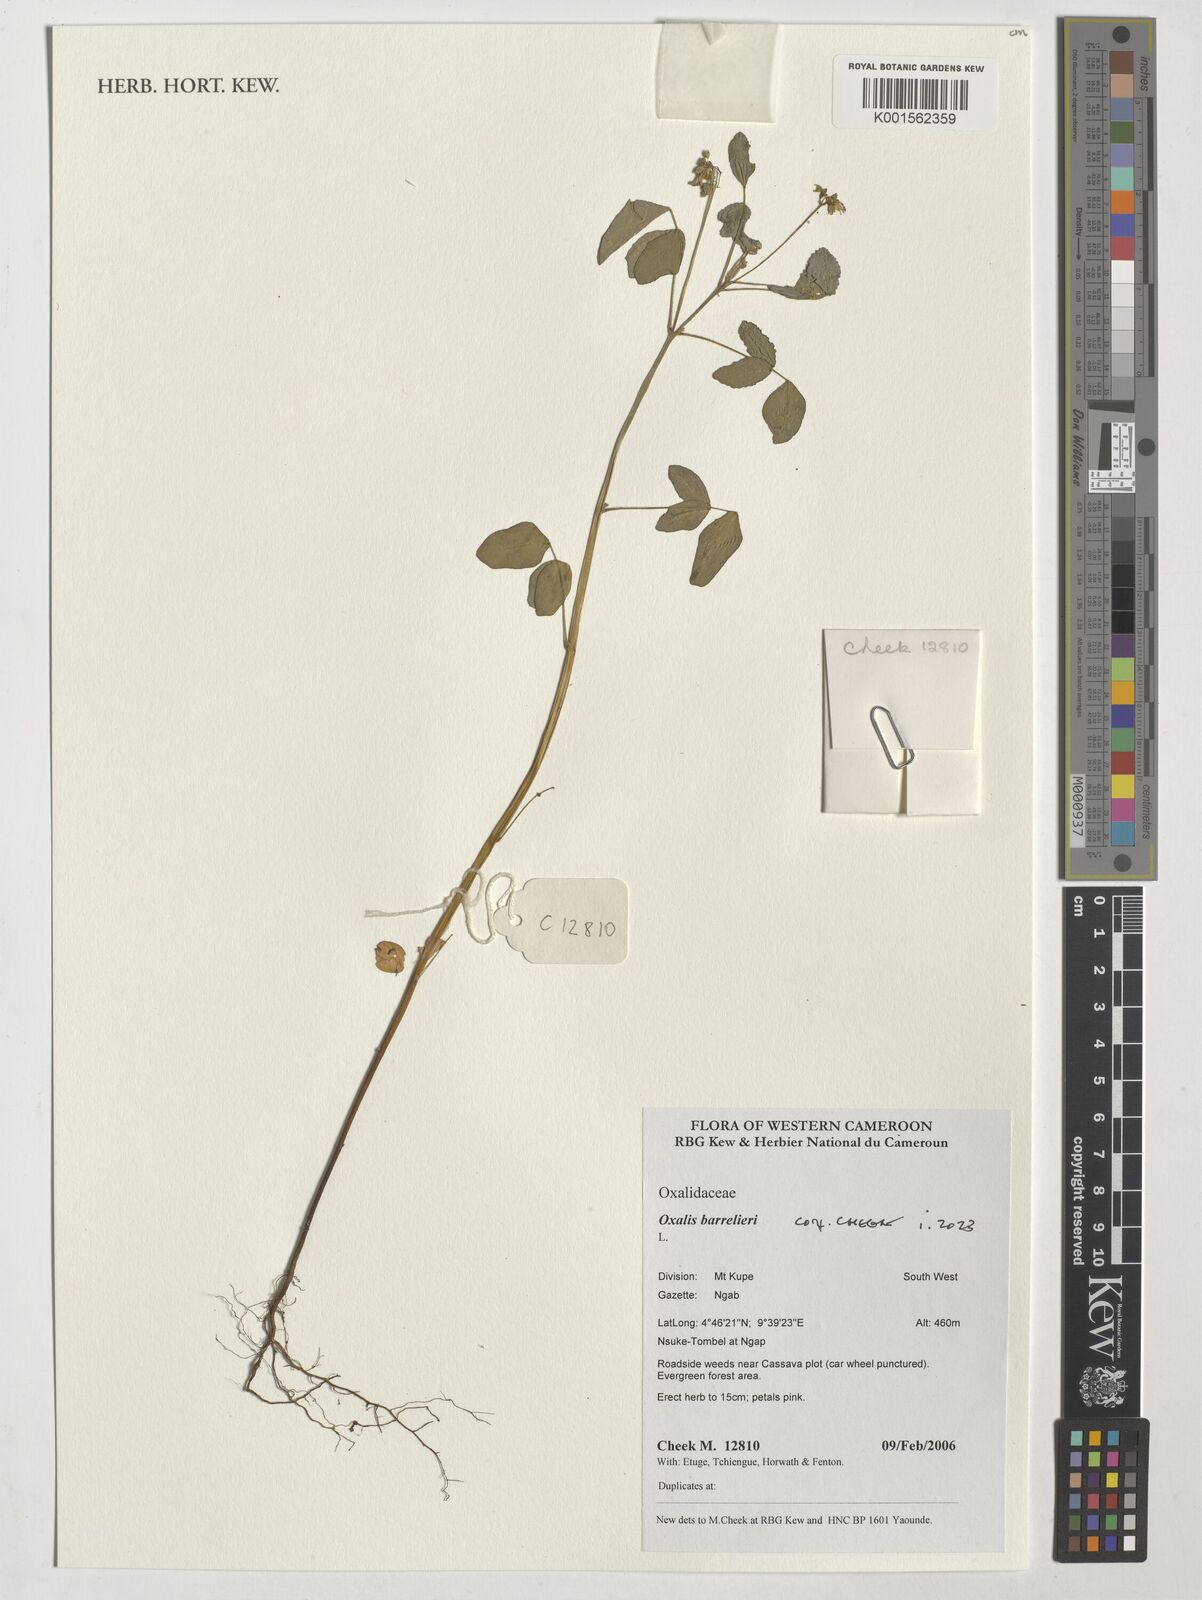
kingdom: Plantae
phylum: Tracheophyta
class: Magnoliopsida
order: Oxalidales
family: Oxalidaceae
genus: Oxalis
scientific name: Oxalis barrelieri
